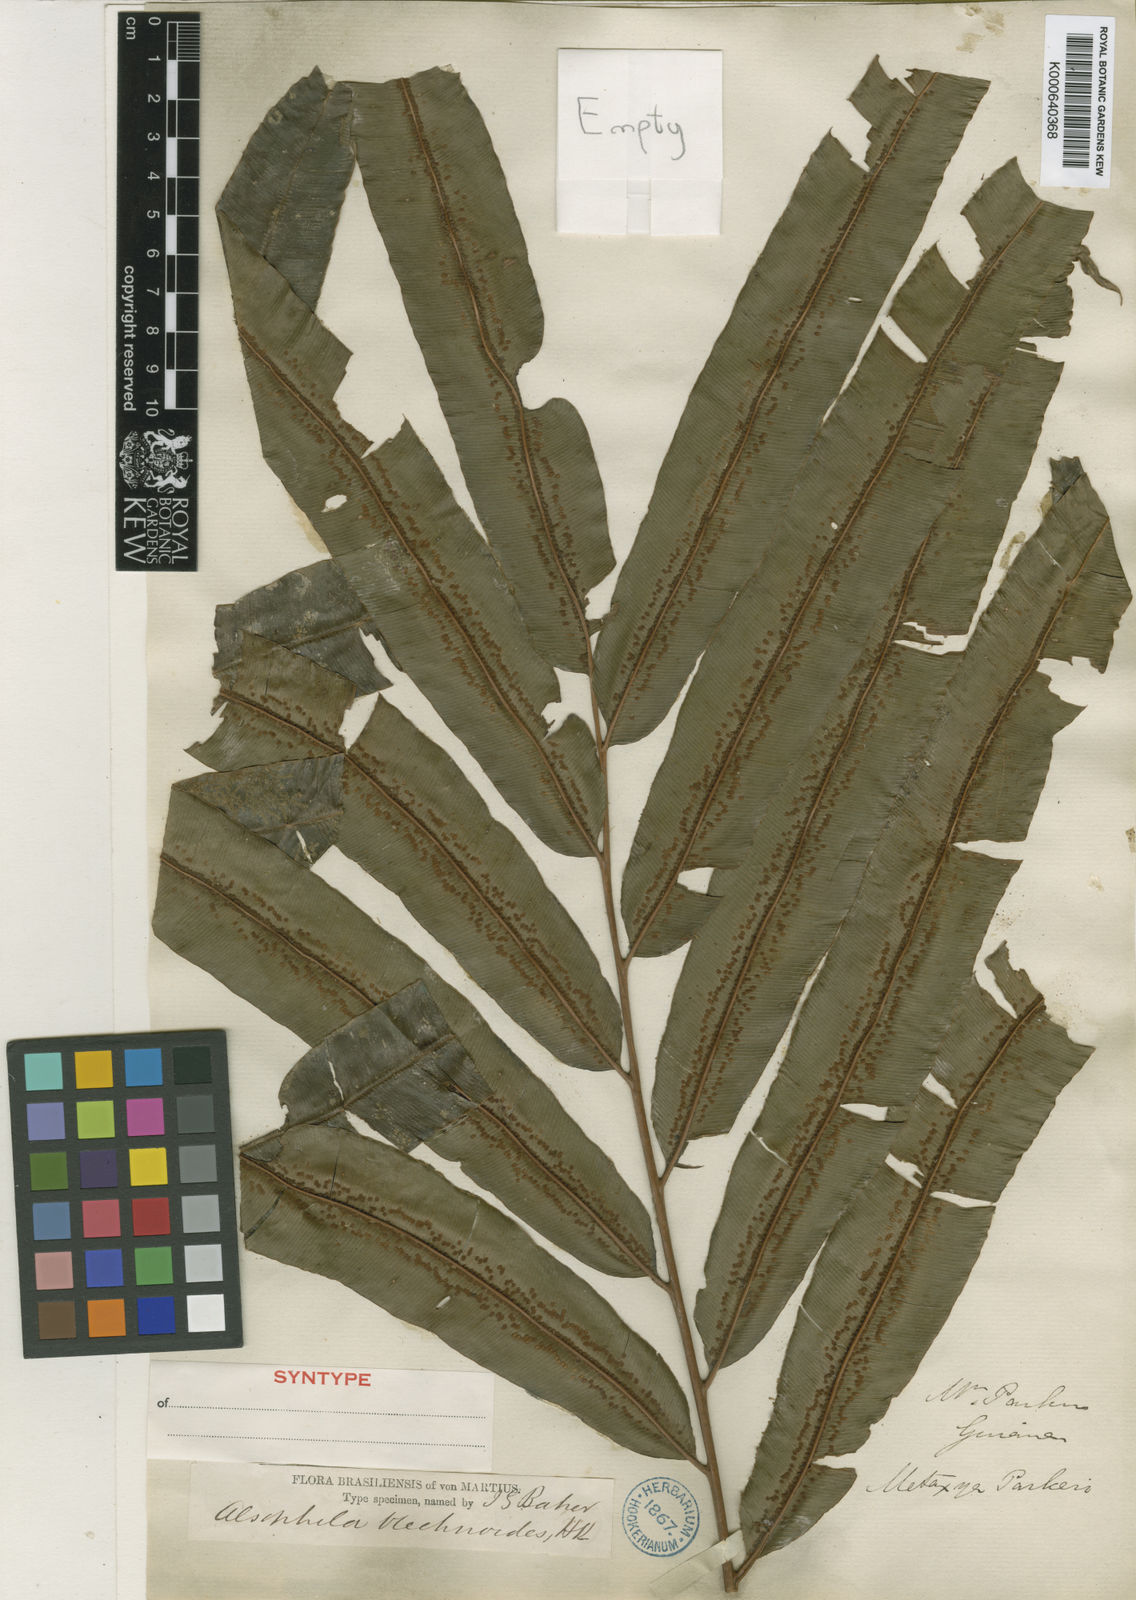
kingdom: Plantae
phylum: Tracheophyta
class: Polypodiopsida
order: Cyatheales
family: Metaxyaceae
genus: Metaxya
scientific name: Metaxya rostrata
